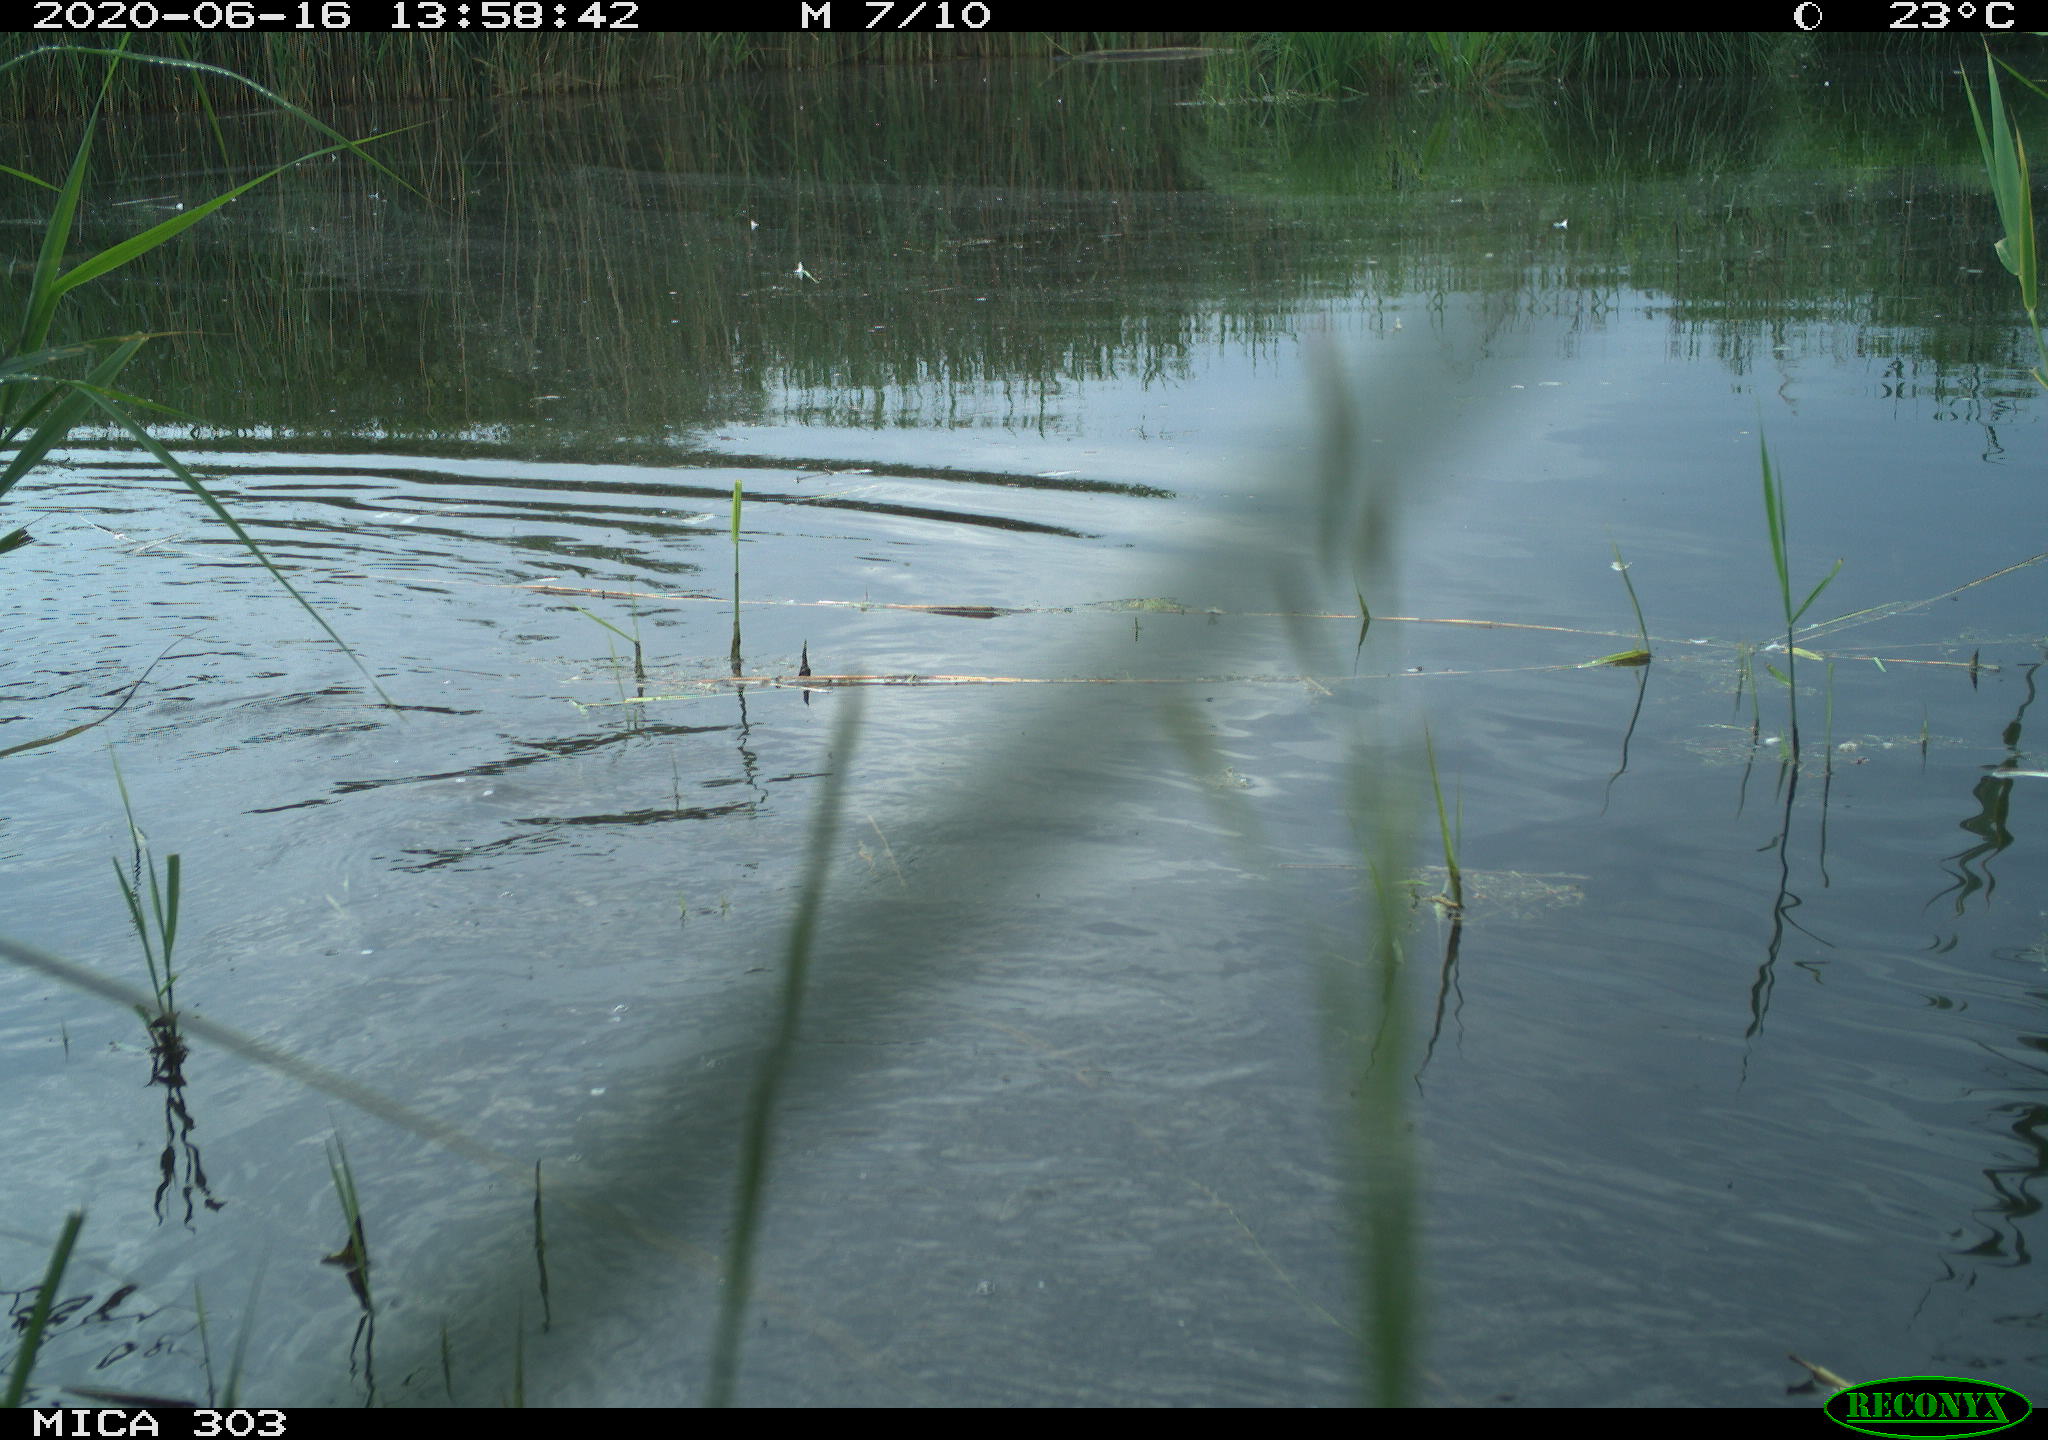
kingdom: Animalia
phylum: Chordata
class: Aves
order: Coraciiformes
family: Alcedinidae
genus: Alcedo
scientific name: Alcedo atthis
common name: Common kingfisher
